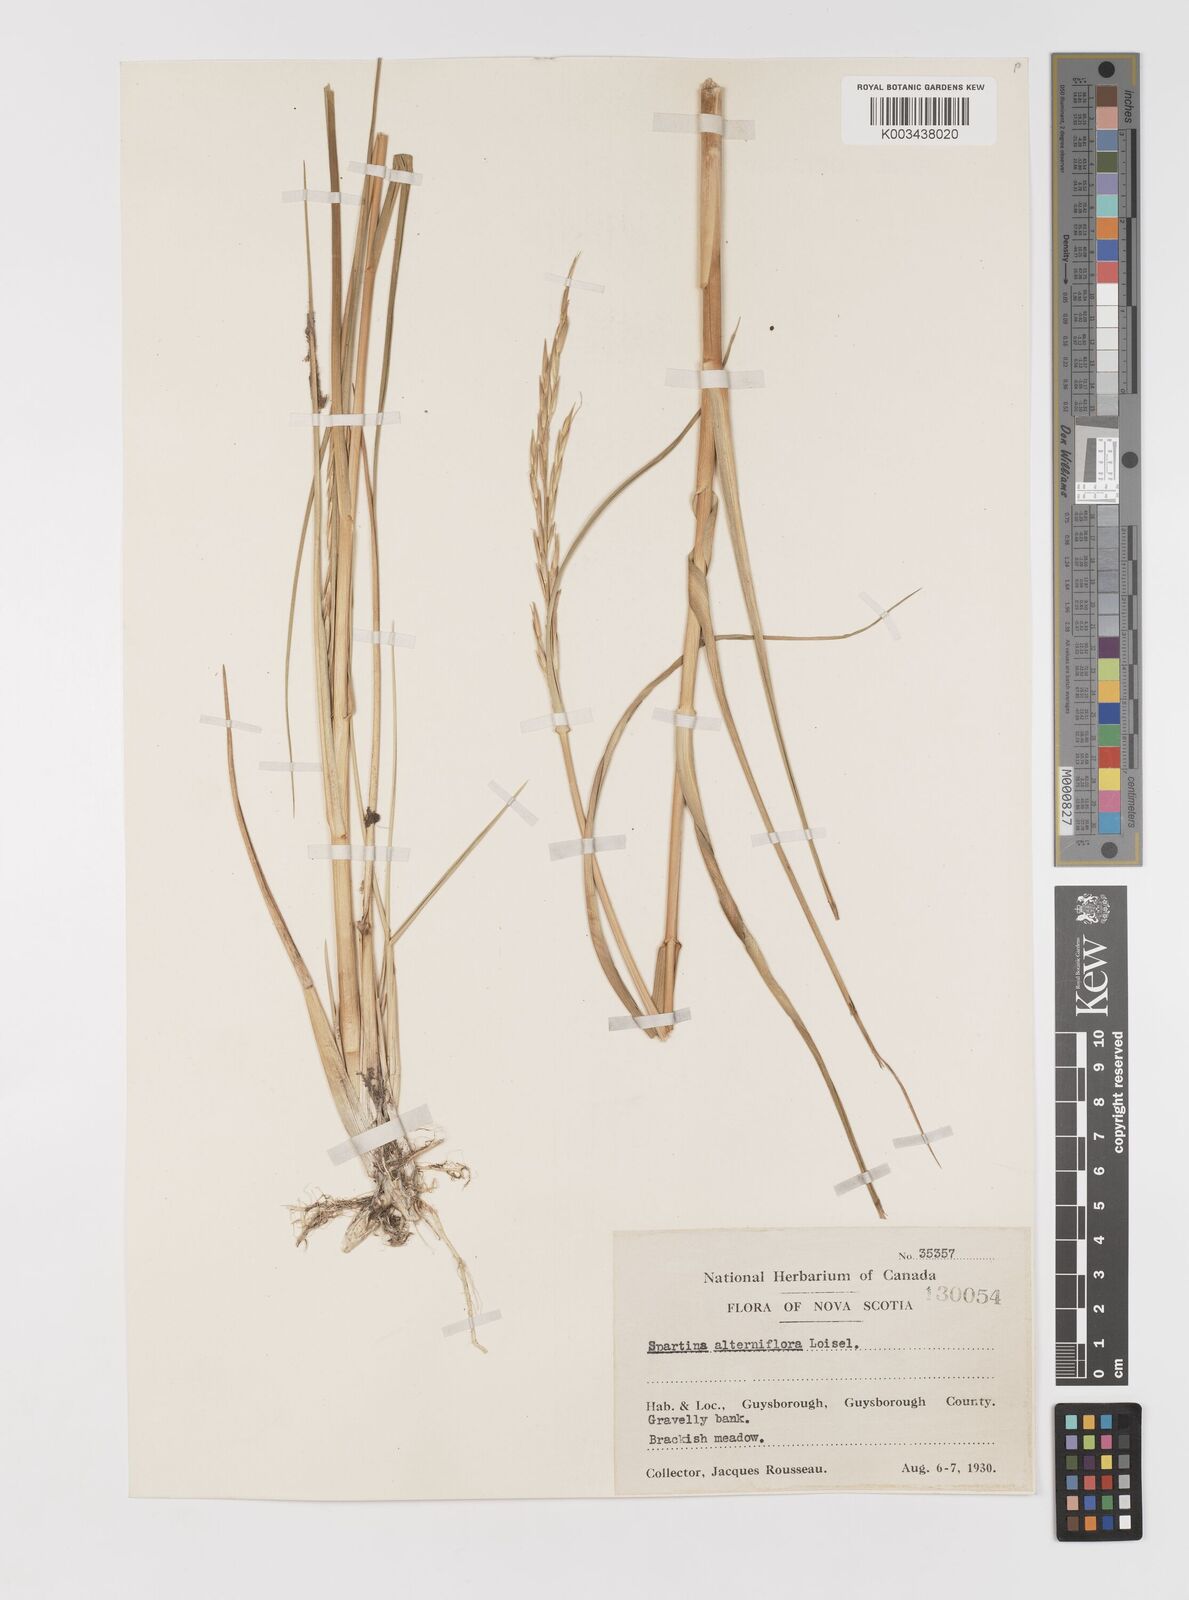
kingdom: Animalia
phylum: Mollusca
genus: Spartina
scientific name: Spartina
